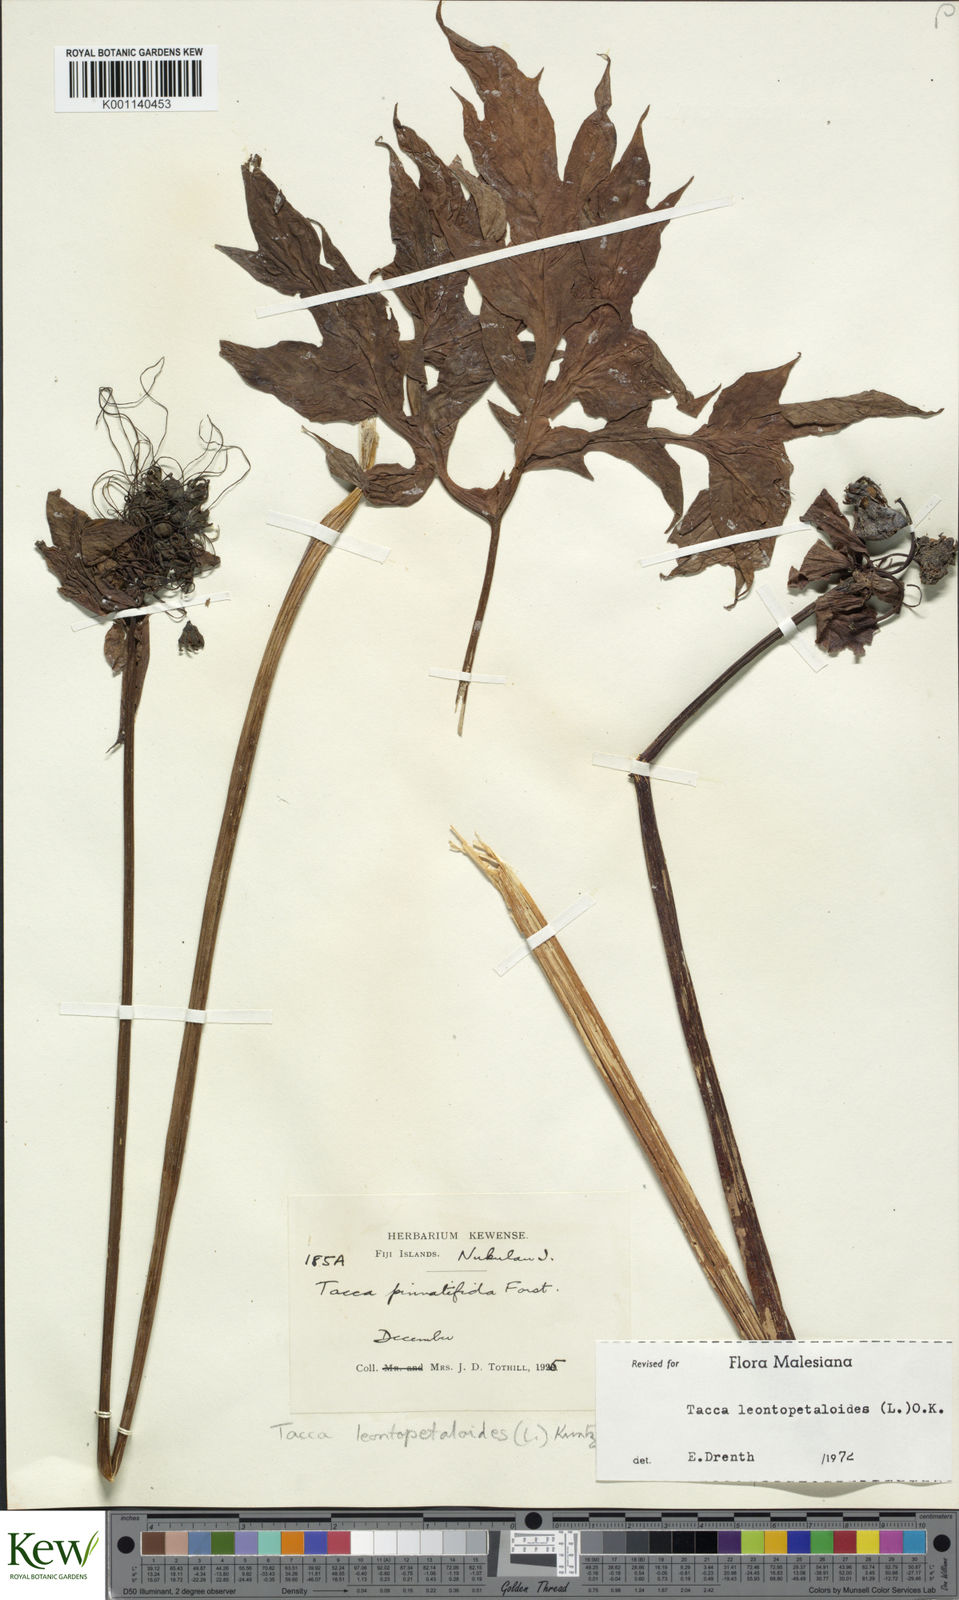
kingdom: Plantae
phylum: Tracheophyta
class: Liliopsida
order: Dioscoreales
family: Dioscoreaceae
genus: Tacca
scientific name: Tacca leontopetaloides
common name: Arrowroot
